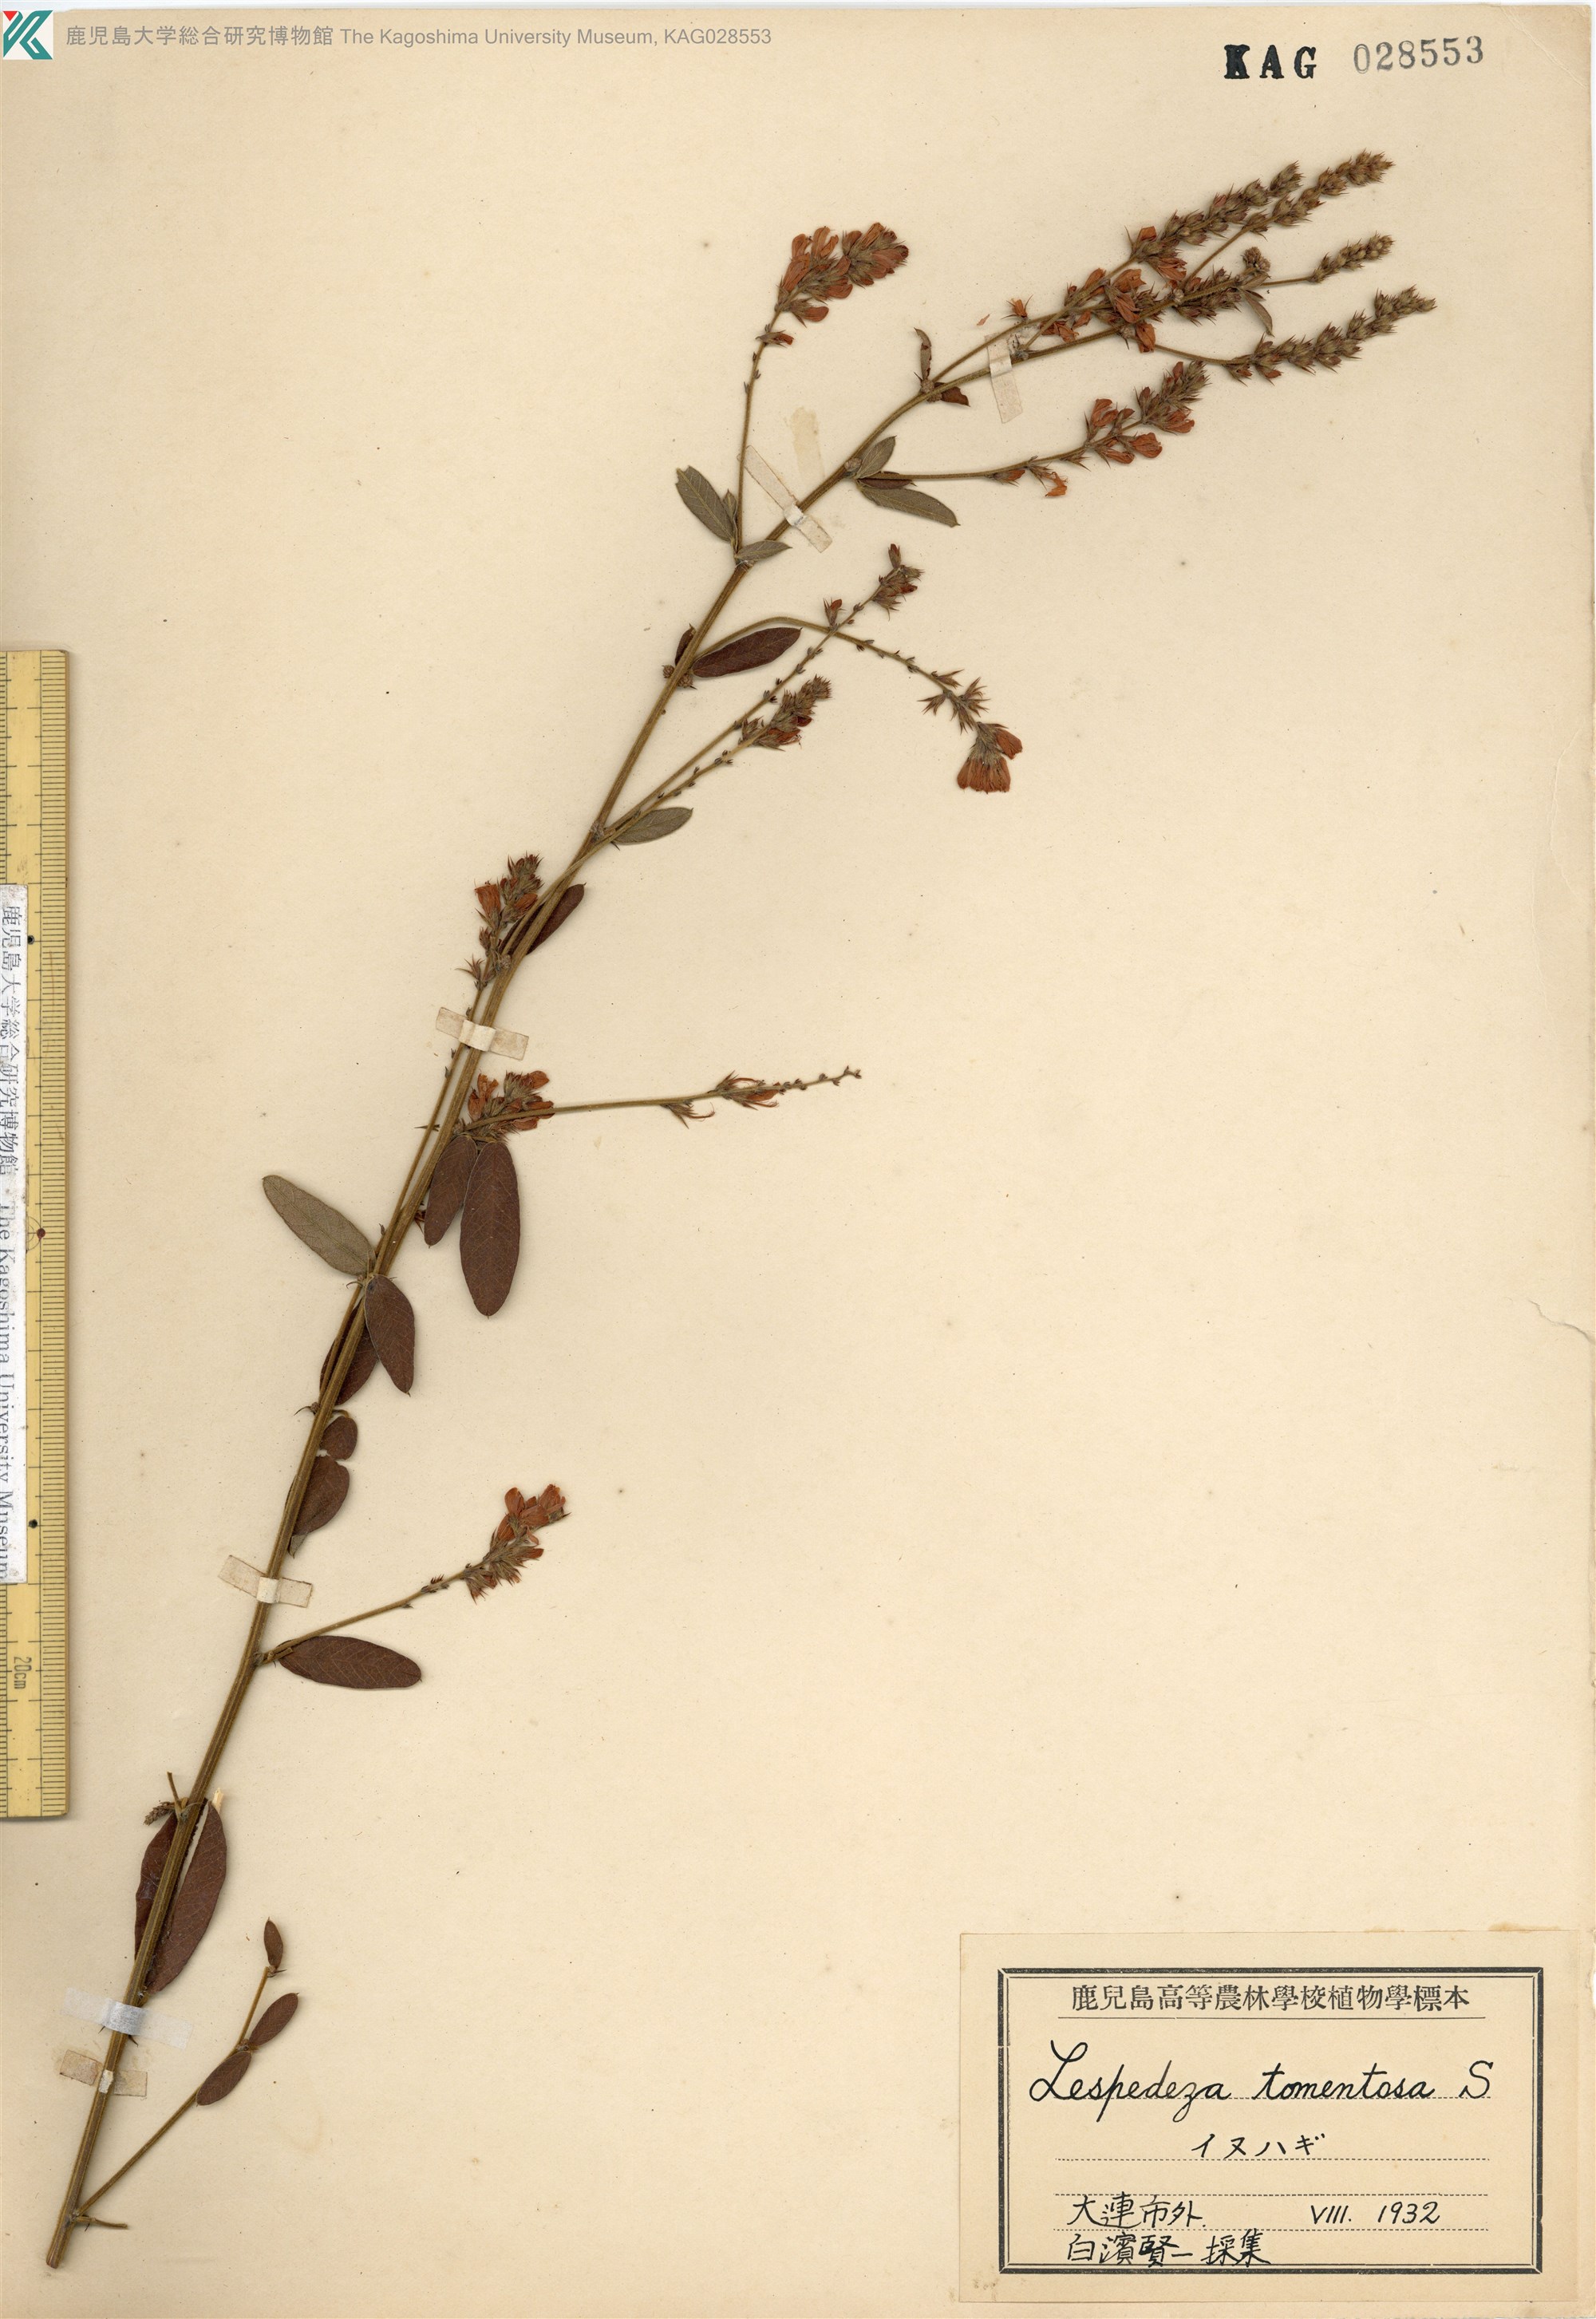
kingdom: Plantae
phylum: Tracheophyta
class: Magnoliopsida
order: Fabales
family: Fabaceae
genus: Lespedeza
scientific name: Lespedeza tomentosa
